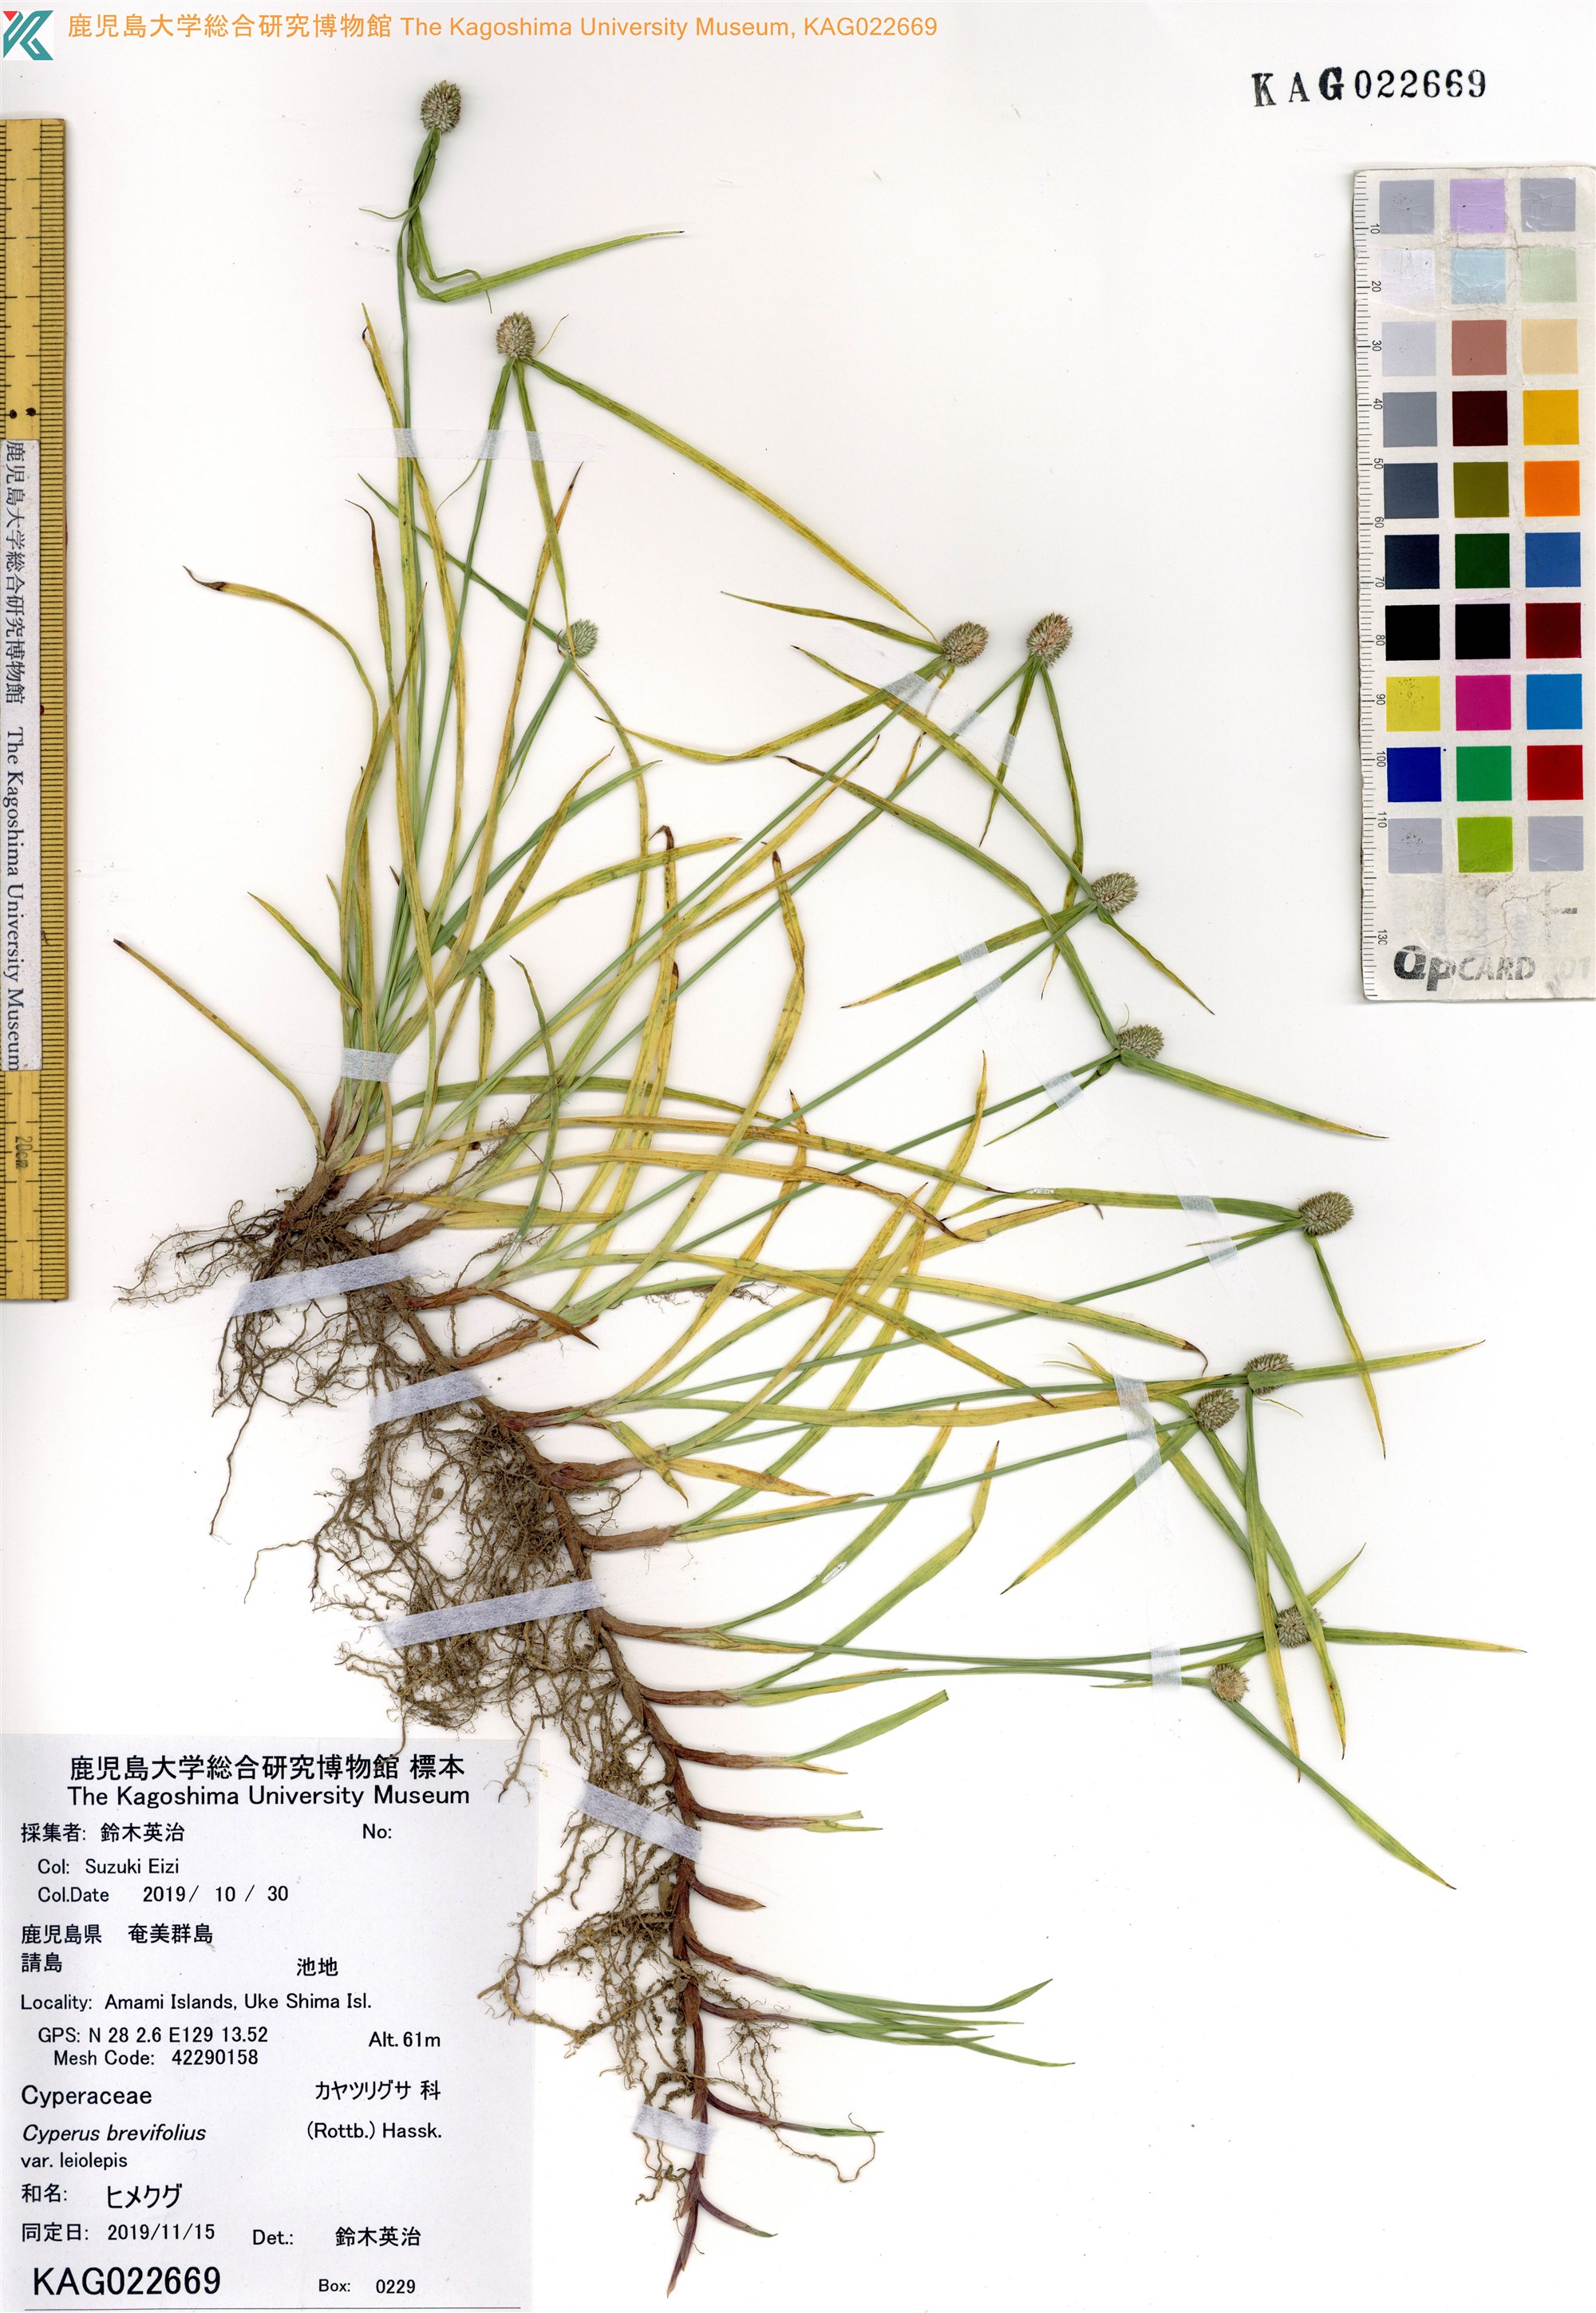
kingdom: Plantae
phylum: Tracheophyta
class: Liliopsida
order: Poales
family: Cyperaceae
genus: Cyperus
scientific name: Cyperus brevifolioides
